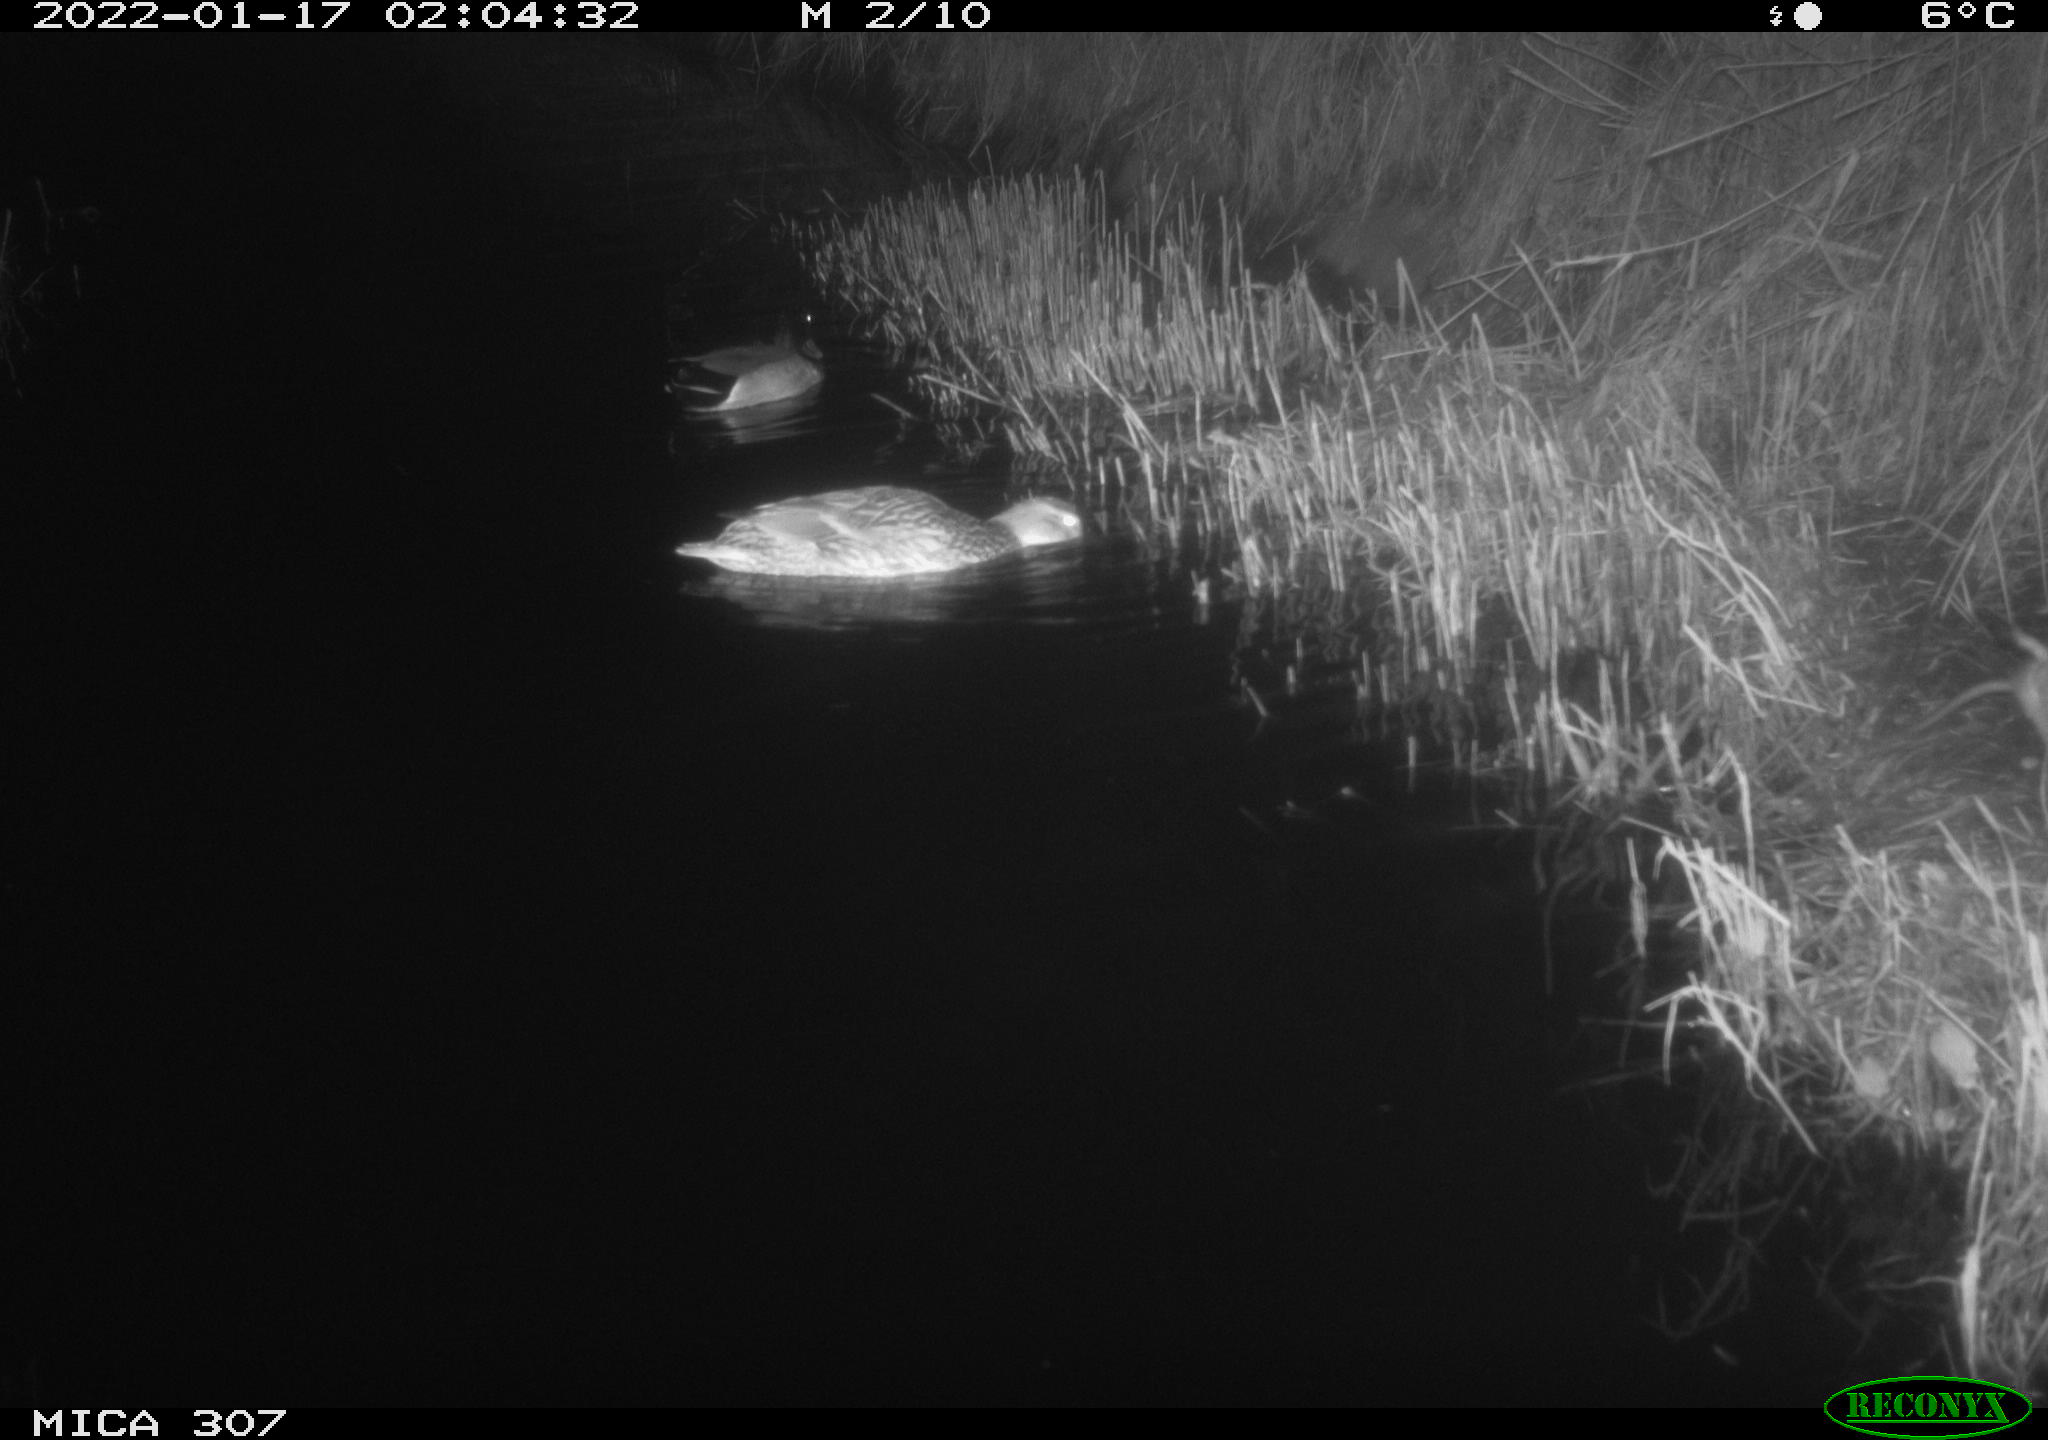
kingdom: Animalia
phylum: Chordata
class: Aves
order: Anseriformes
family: Anatidae
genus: Anas
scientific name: Anas
